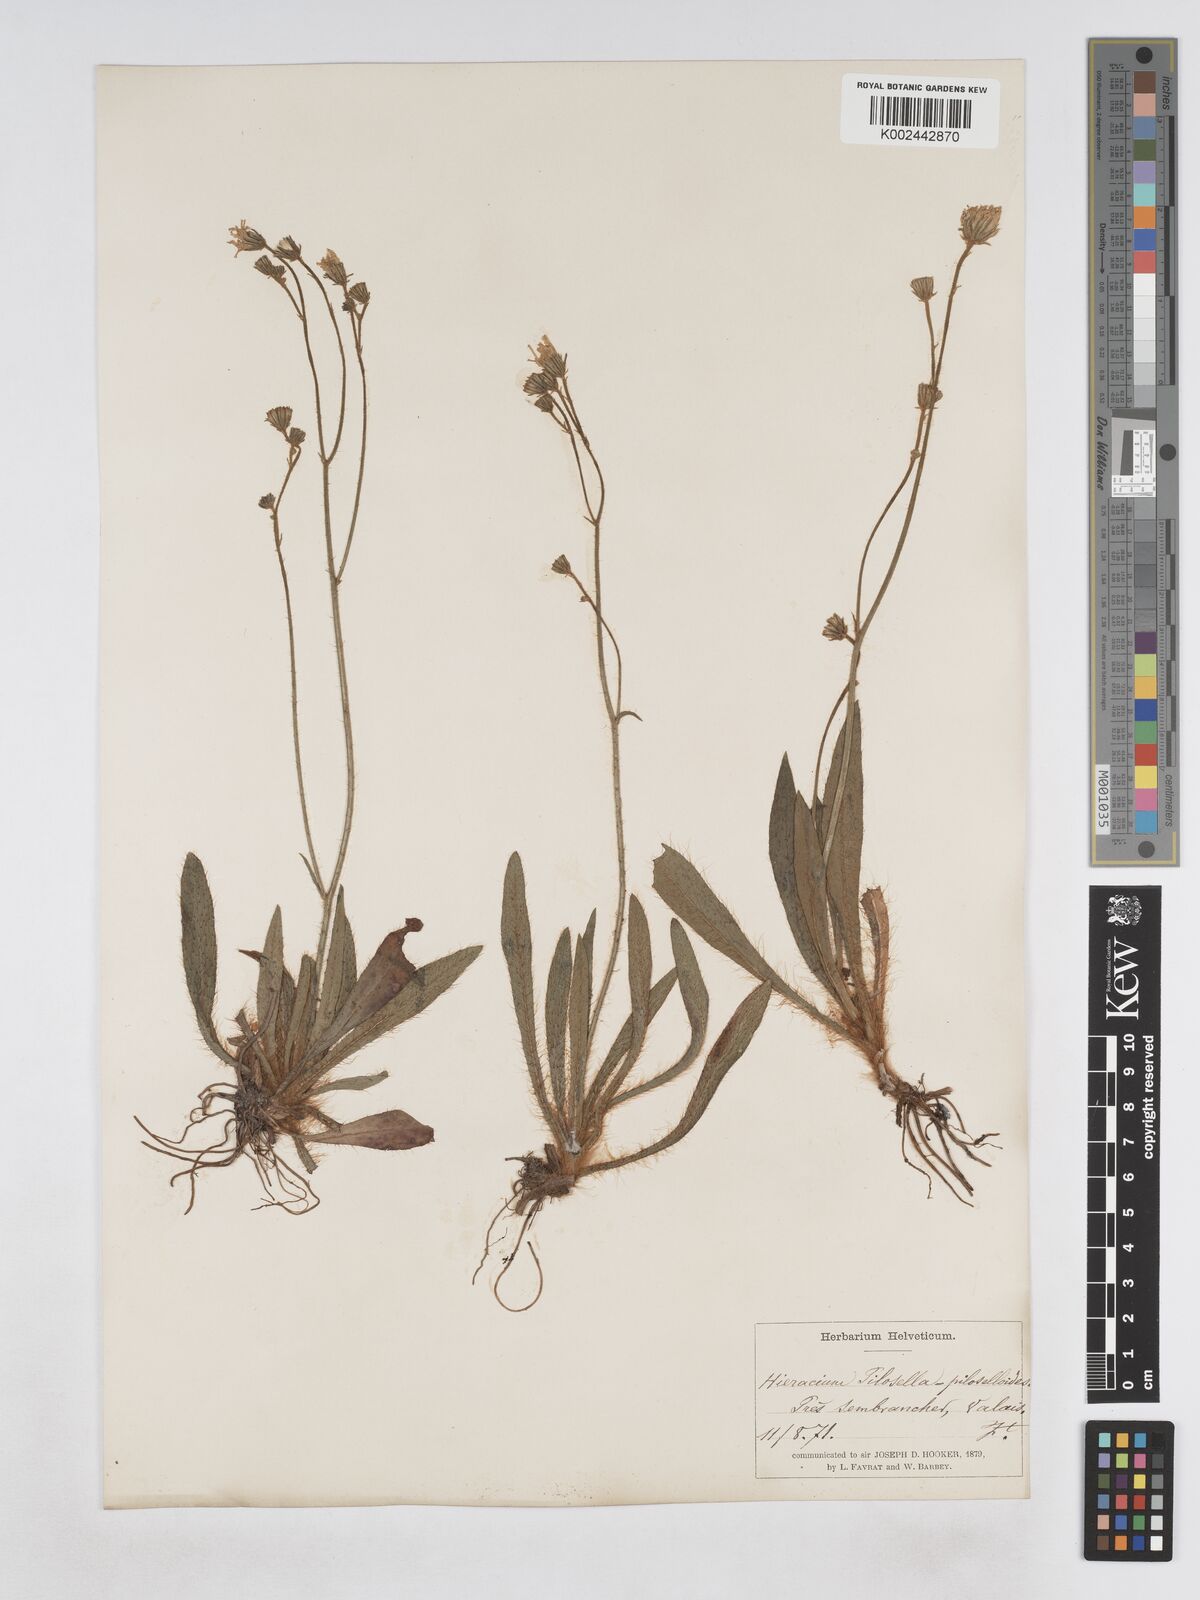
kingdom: Plantae
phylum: Tracheophyta
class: Magnoliopsida
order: Asterales
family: Asteraceae
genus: Pilosella
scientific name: Pilosella bifurca
